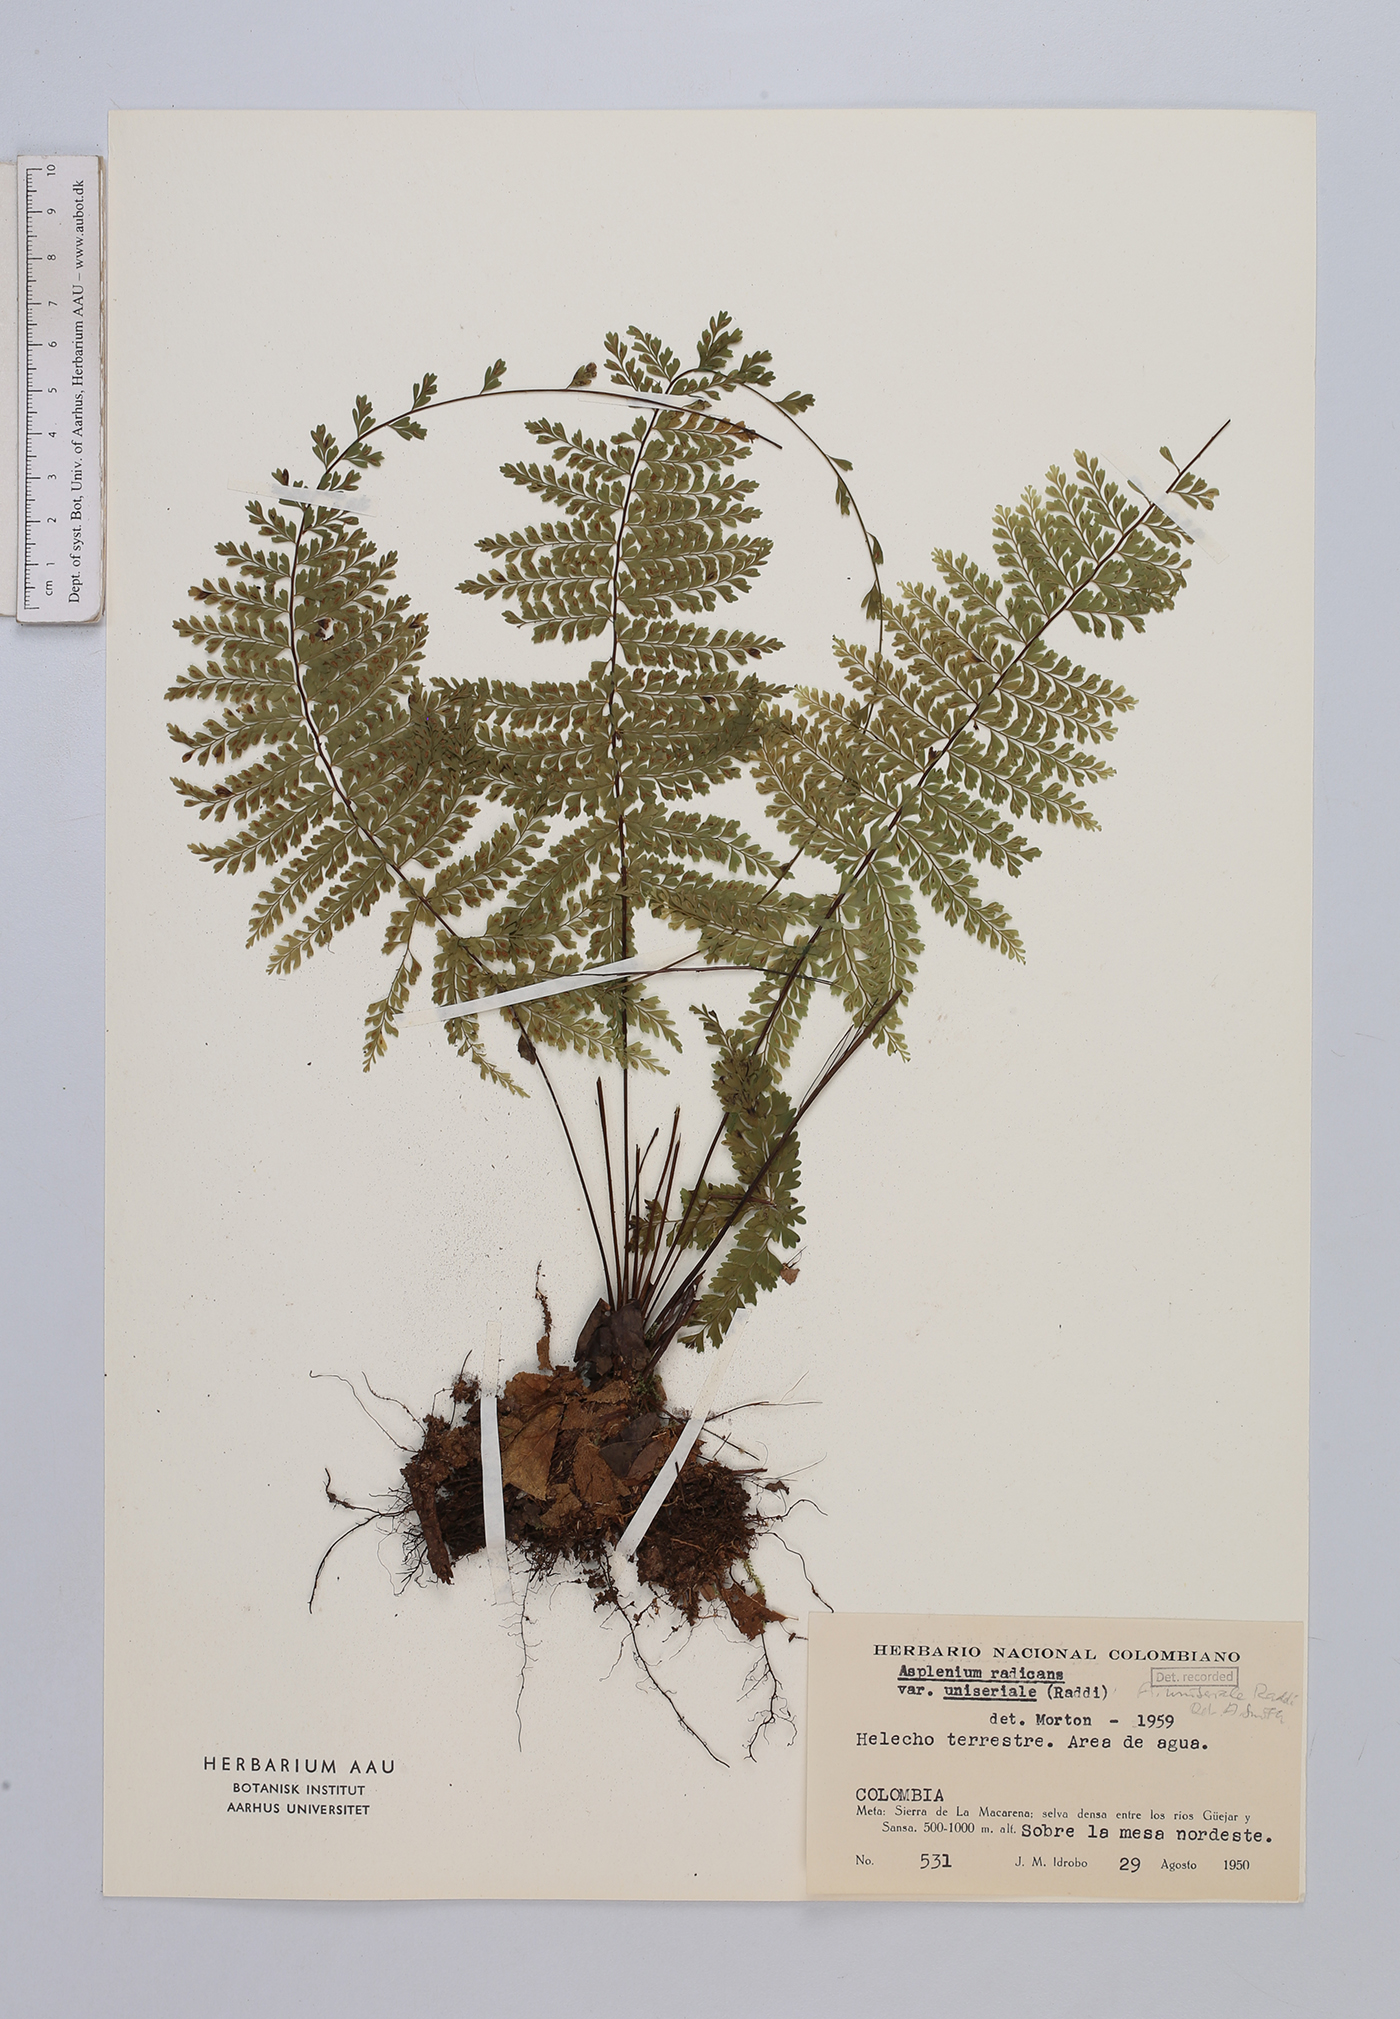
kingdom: Plantae
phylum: Tracheophyta
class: Polypodiopsida
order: Polypodiales
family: Aspleniaceae
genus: Asplenium
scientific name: Asplenium uniseriale
